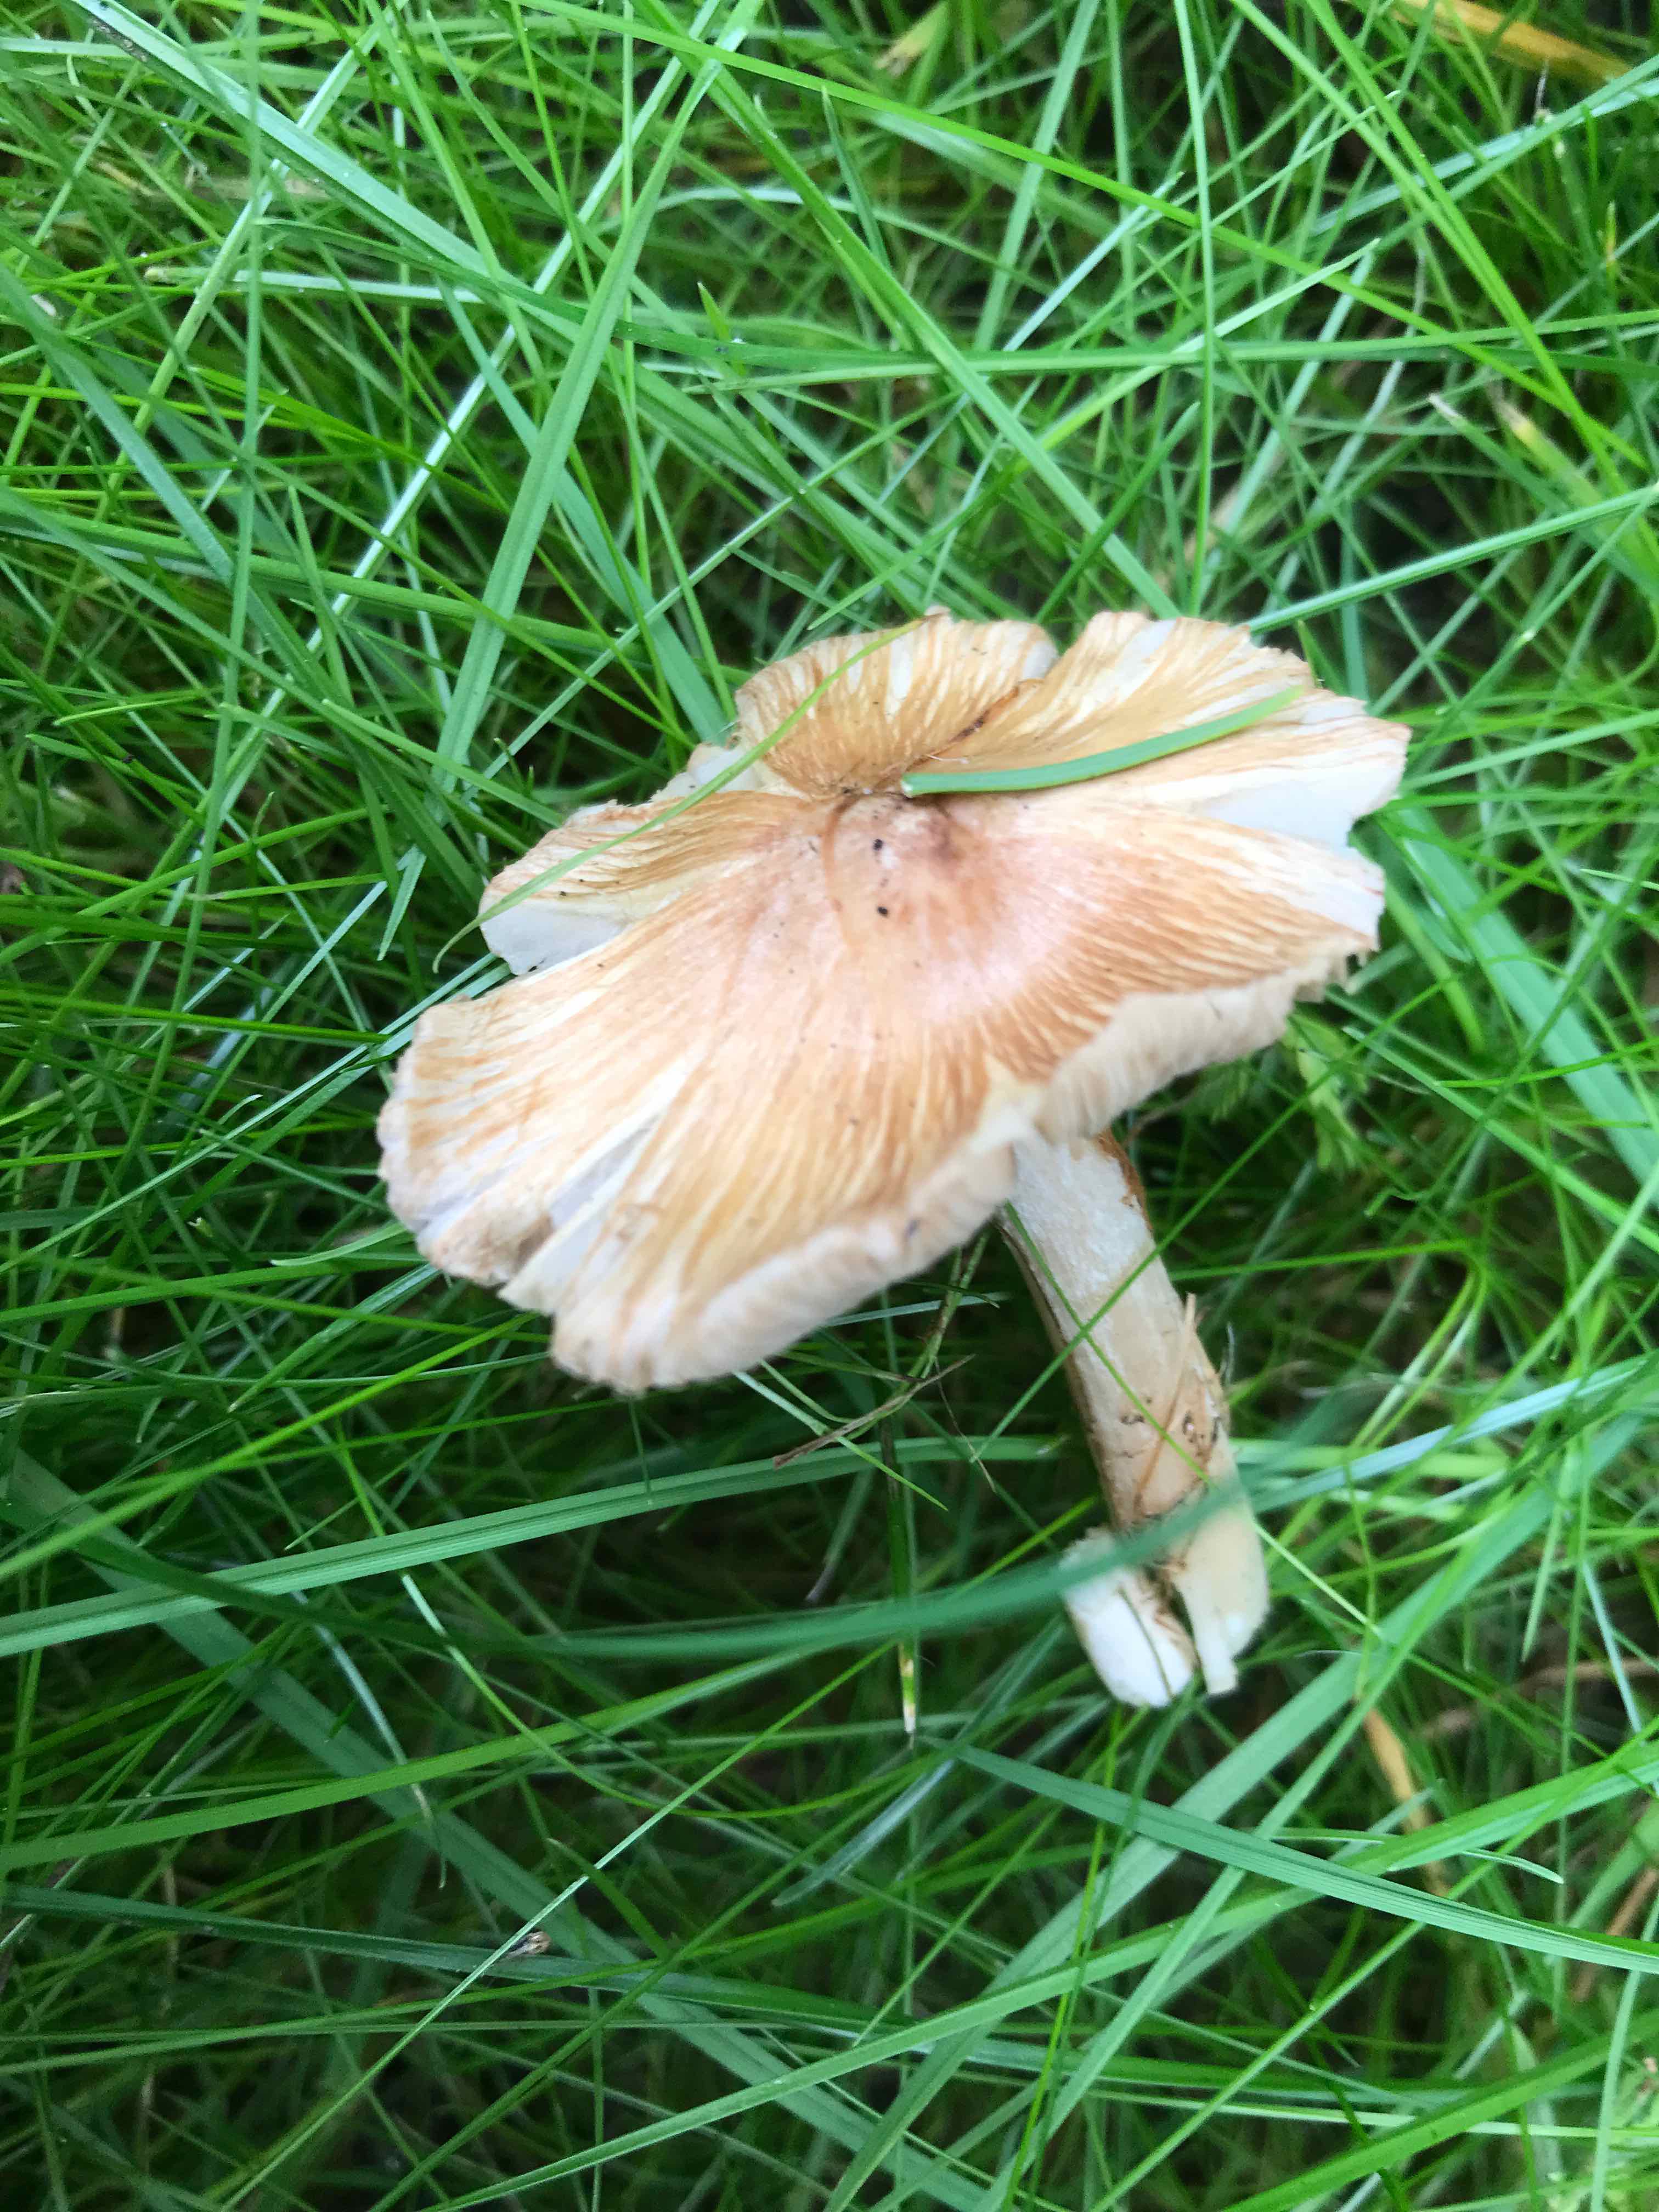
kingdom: Fungi
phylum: Basidiomycota
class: Agaricomycetes
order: Agaricales
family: Inocybaceae
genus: Inosperma
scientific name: Inosperma
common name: Trævlhat
